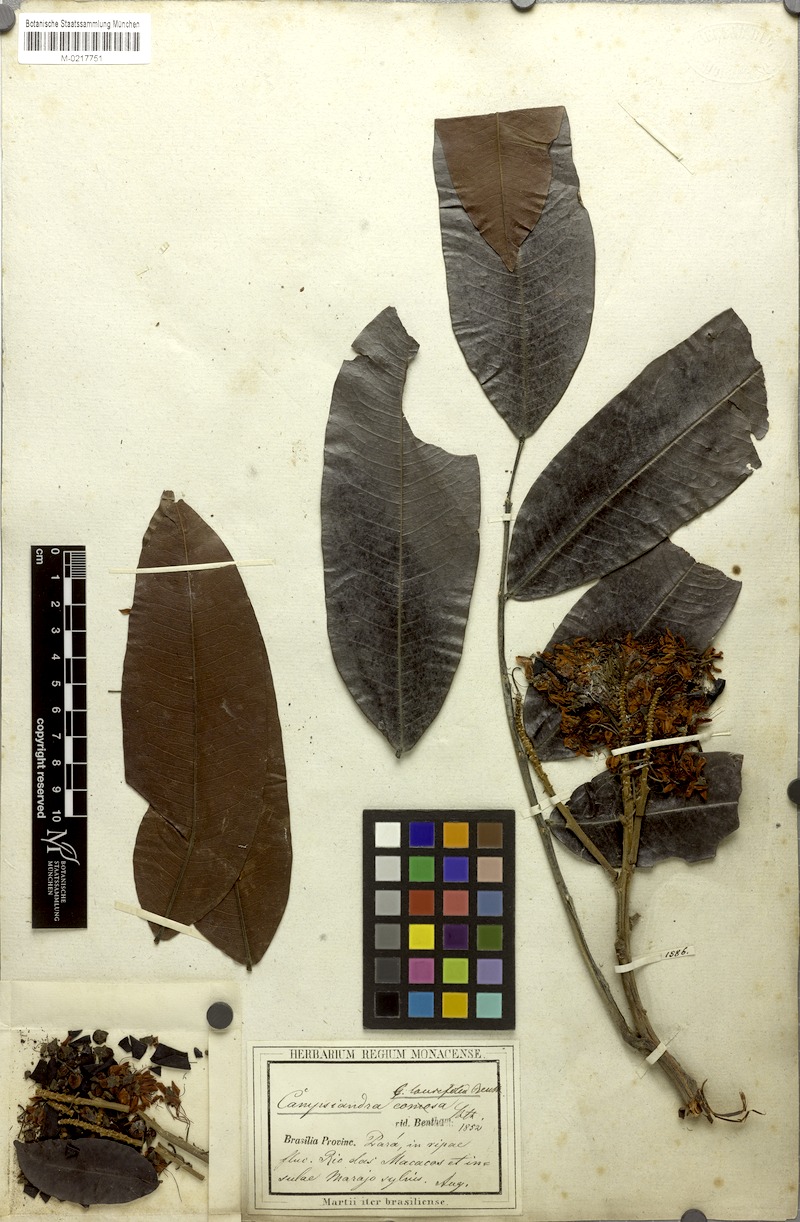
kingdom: Plantae
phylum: Tracheophyta
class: Magnoliopsida
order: Fabales
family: Fabaceae
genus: Campsiandra
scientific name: Campsiandra laurifolia
